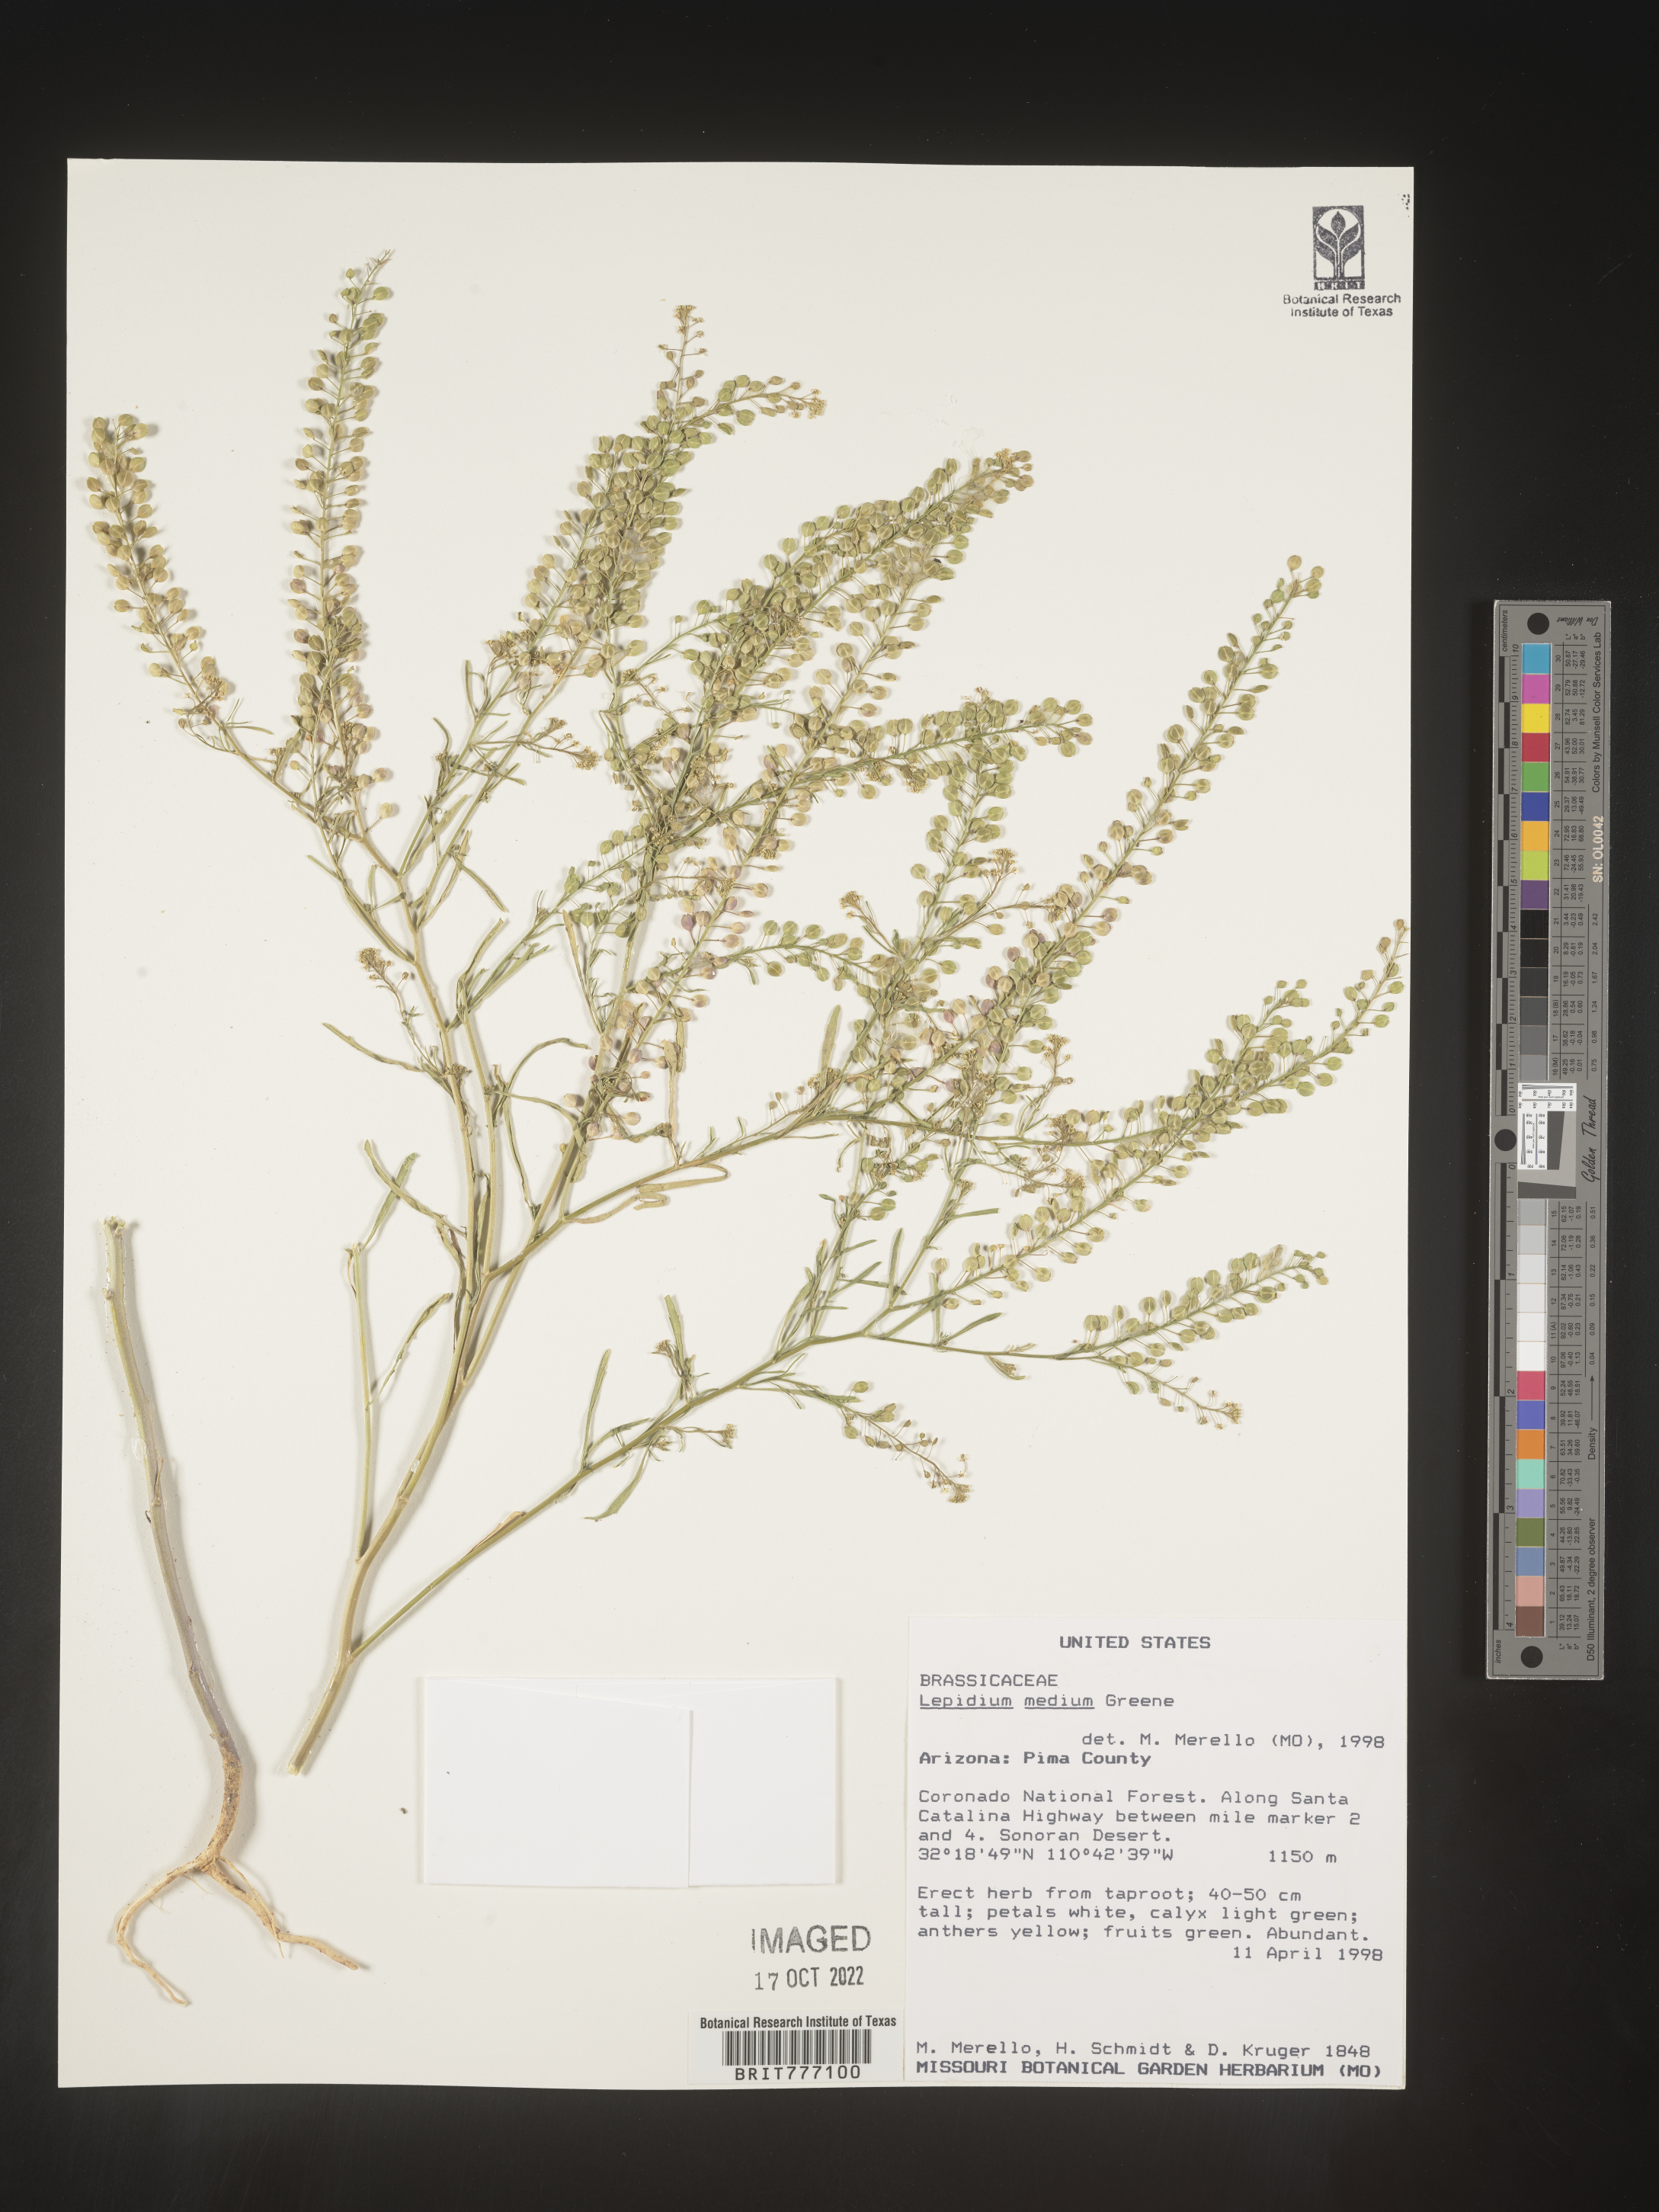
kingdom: Plantae
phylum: Tracheophyta
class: Magnoliopsida
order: Brassicales
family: Brassicaceae
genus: Lepidium
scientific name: Lepidium
